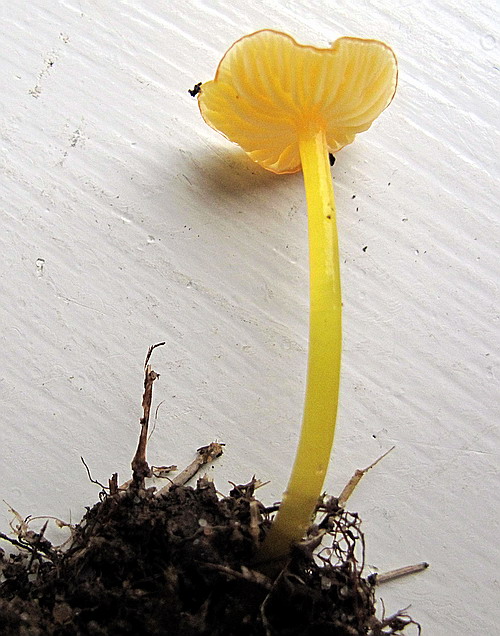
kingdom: Fungi
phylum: Basidiomycota
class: Agaricomycetes
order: Agaricales
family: Hygrophoraceae
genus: Hygrocybe
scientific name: Hygrocybe glutinipes
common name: slimstokket vokshat
